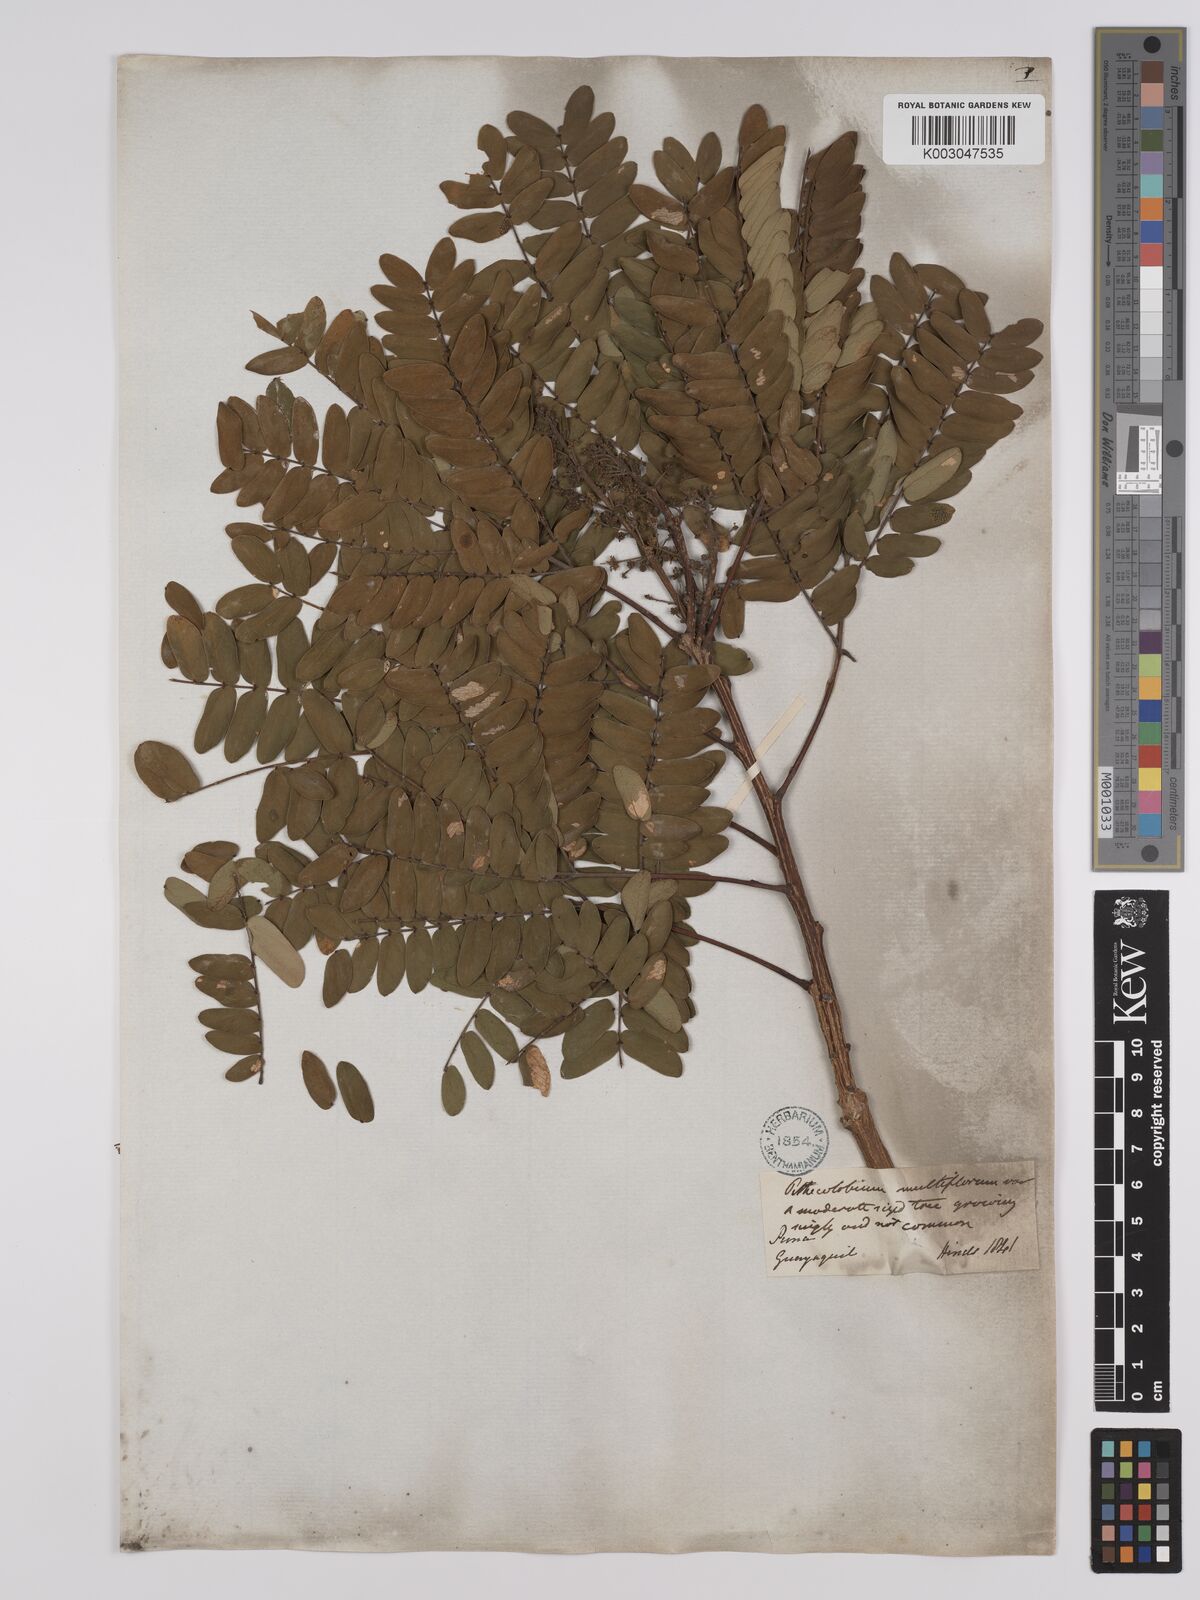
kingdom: Plantae
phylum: Tracheophyta
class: Magnoliopsida
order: Fabales
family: Fabaceae
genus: Albizia
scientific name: Albizia multiflora
